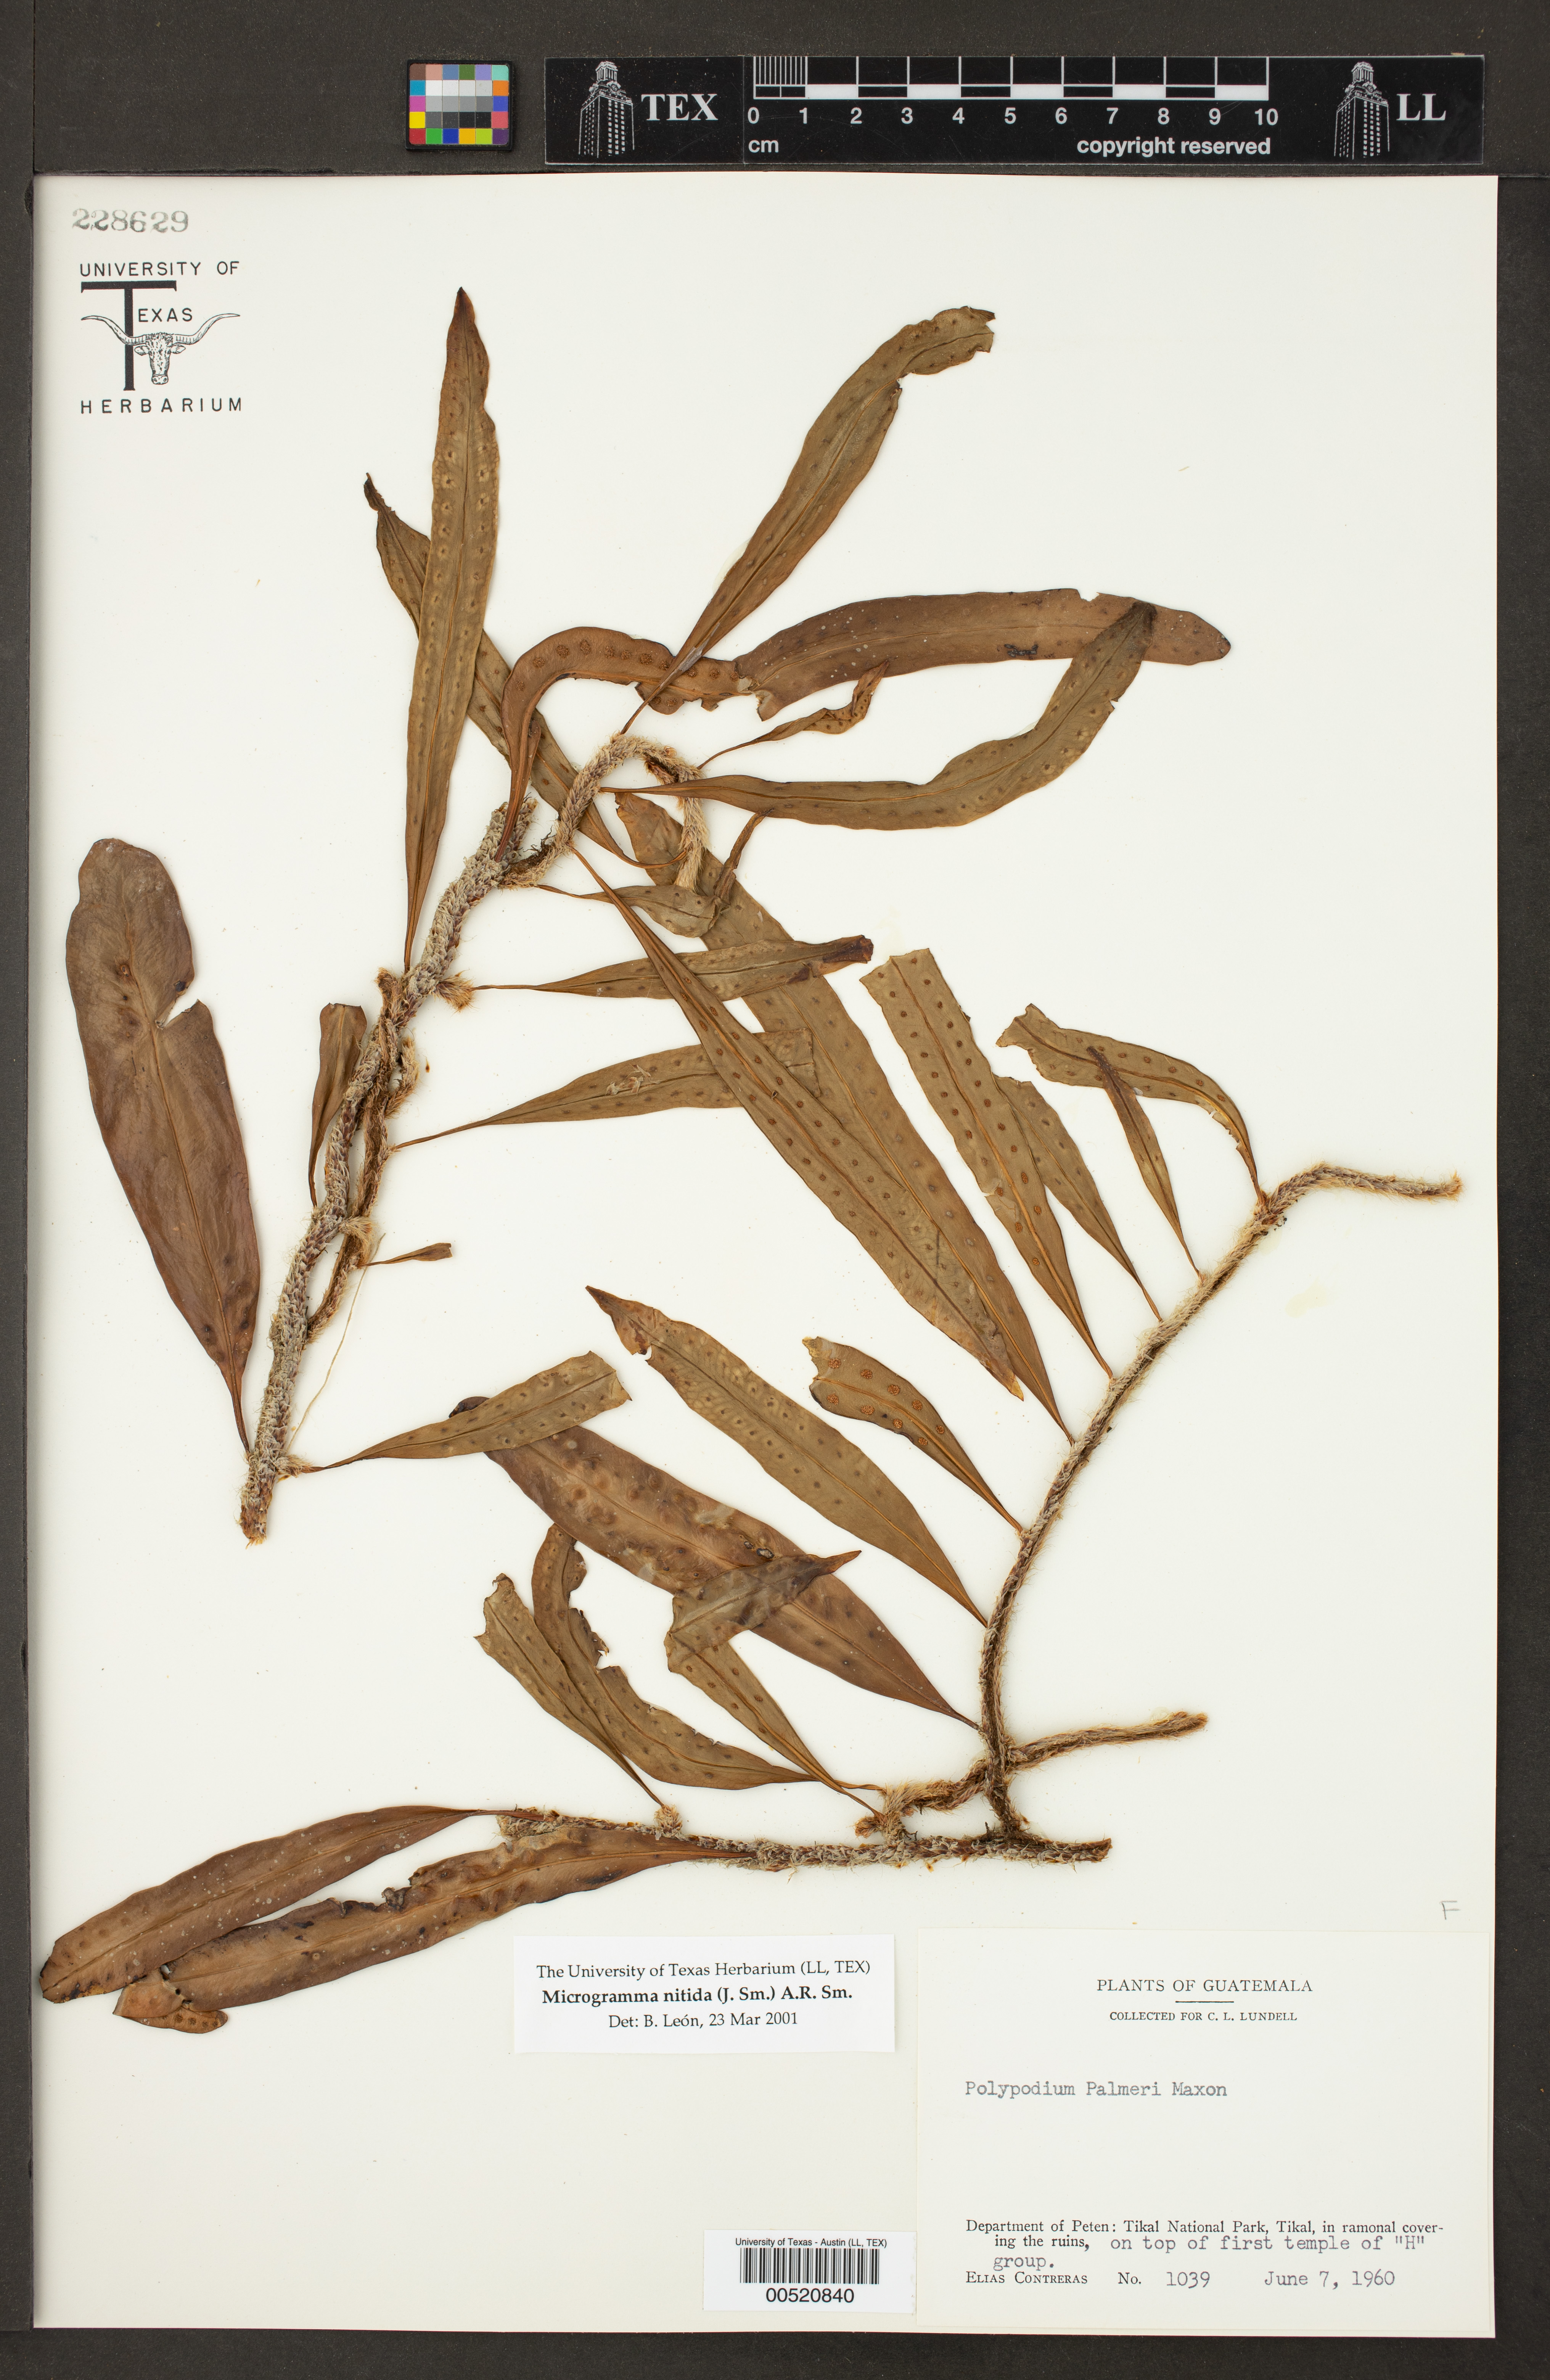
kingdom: Plantae
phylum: Tracheophyta
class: Polypodiopsida
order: Polypodiales
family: Polypodiaceae
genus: Microgramma
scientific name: Microgramma nitida
